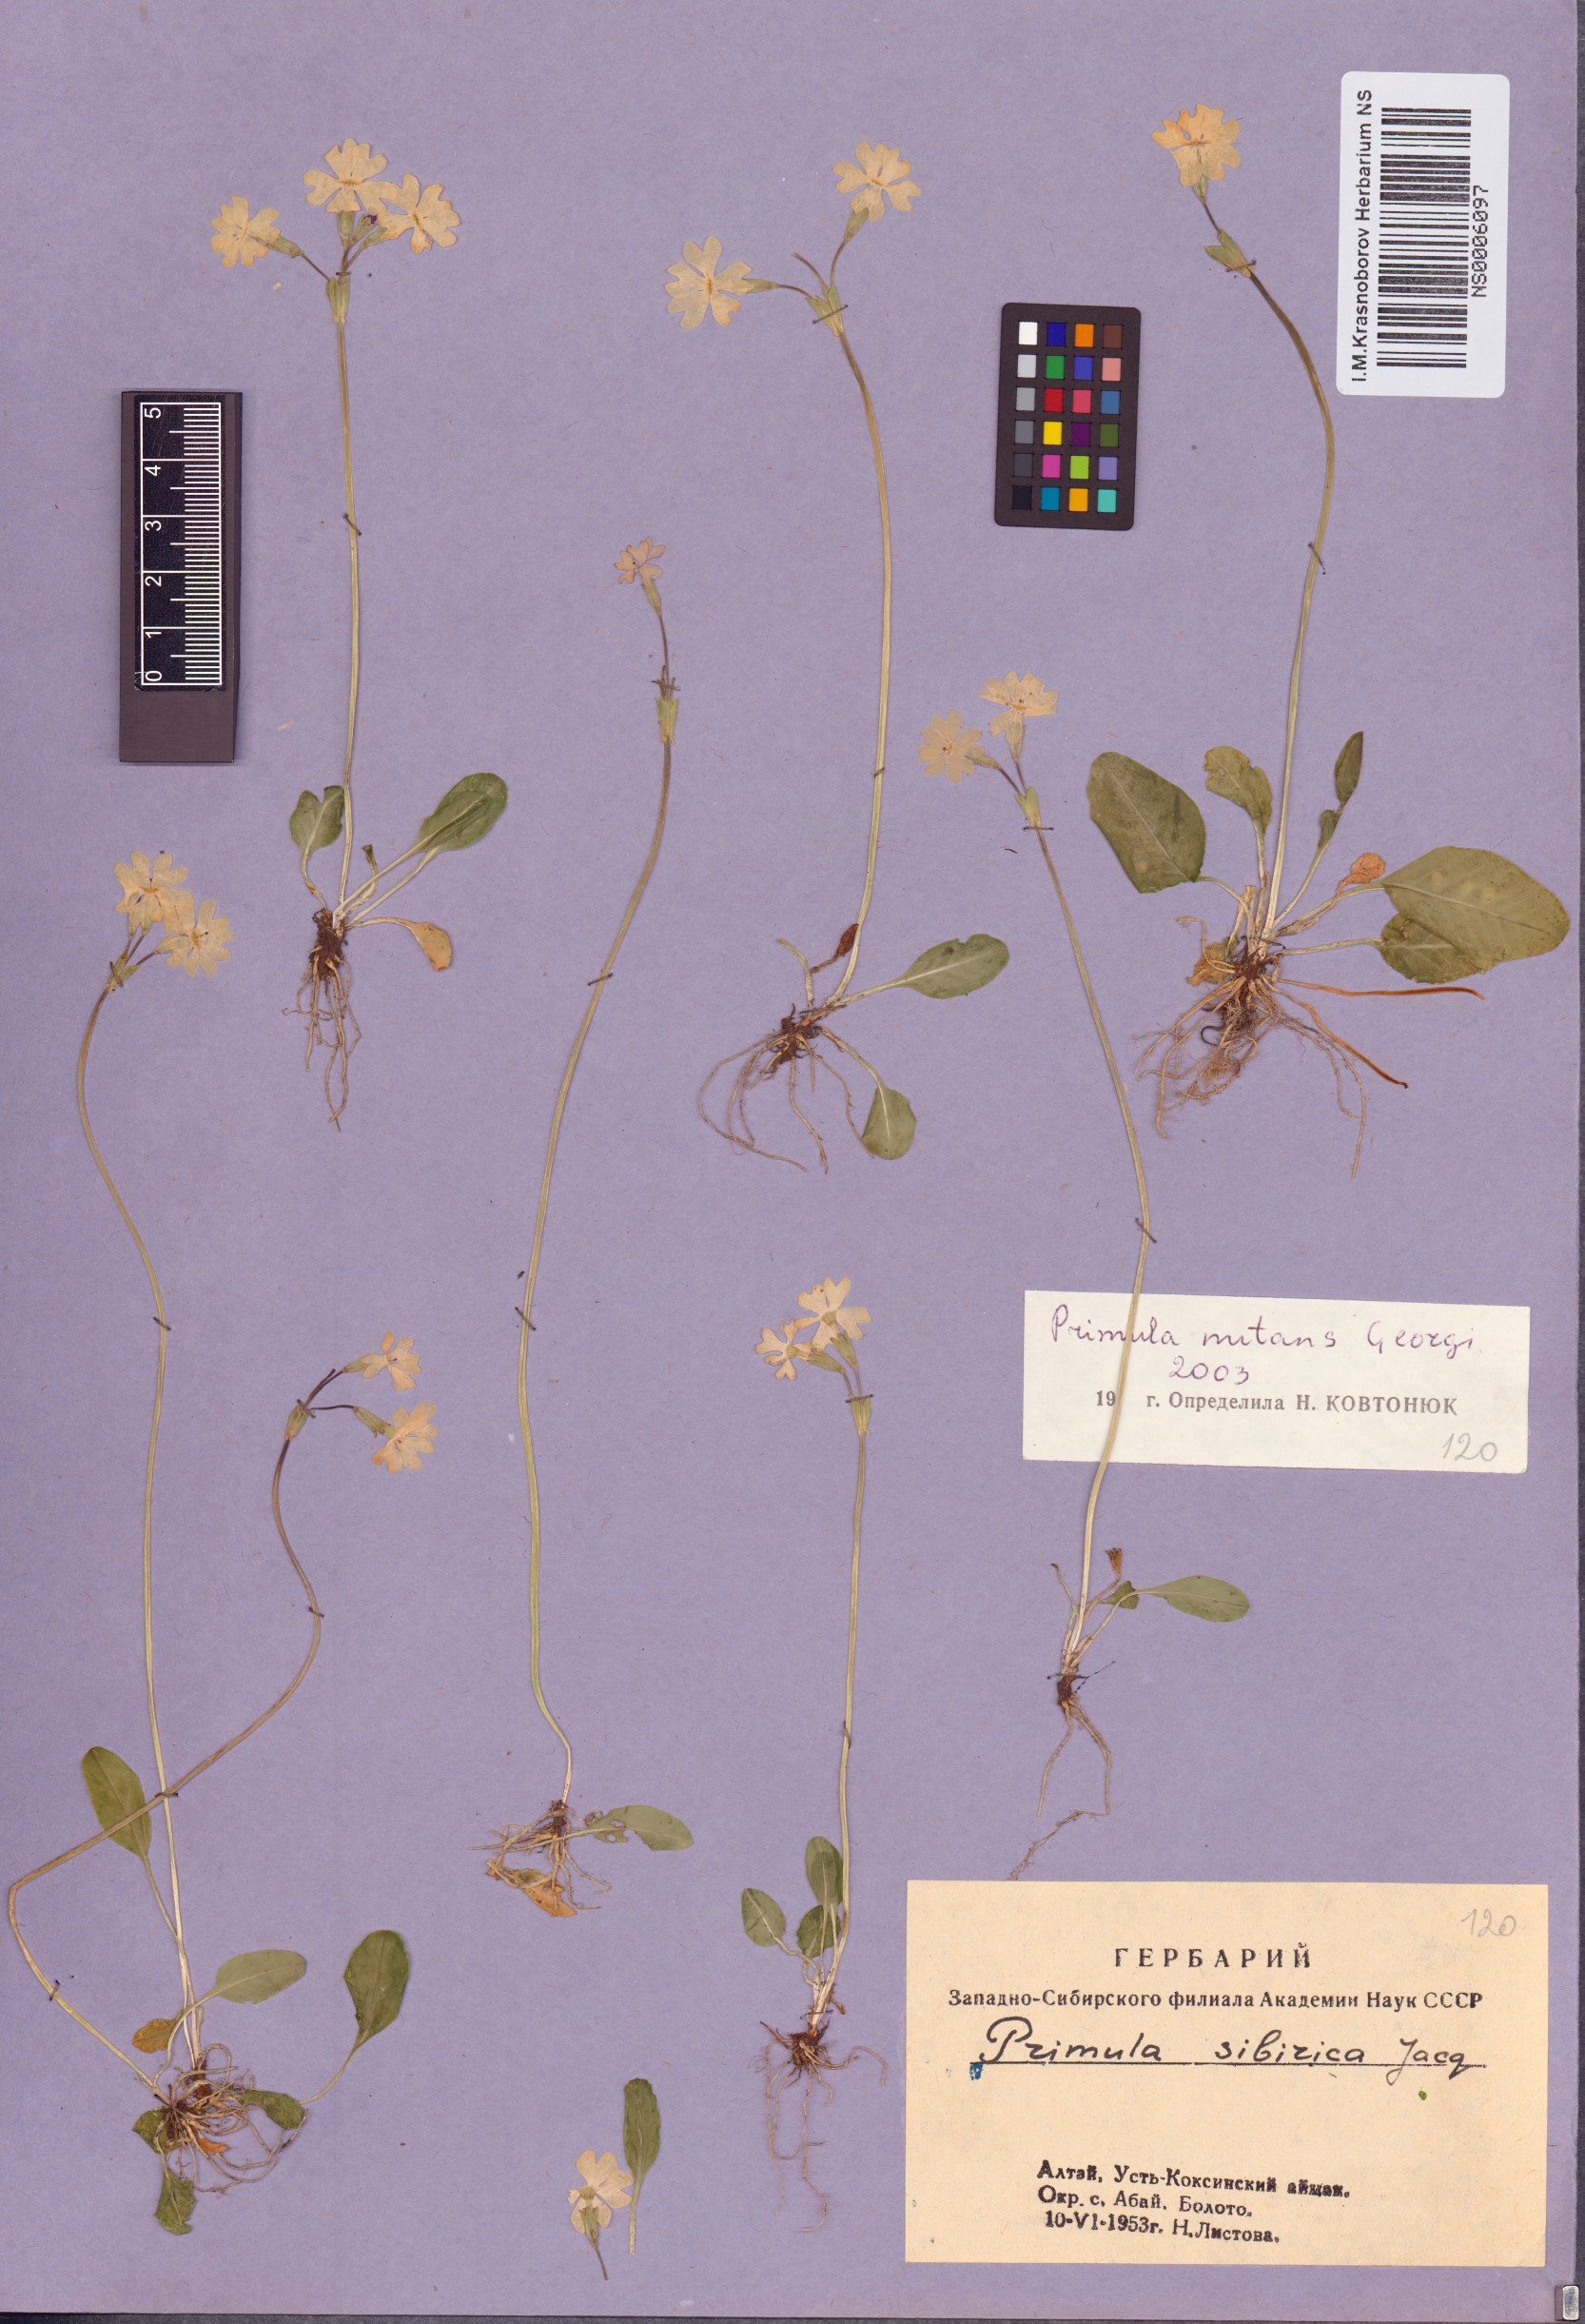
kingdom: Plantae
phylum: Tracheophyta
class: Magnoliopsida
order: Ericales
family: Primulaceae
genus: Primula
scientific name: Primula nutans
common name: Siberian primrose
